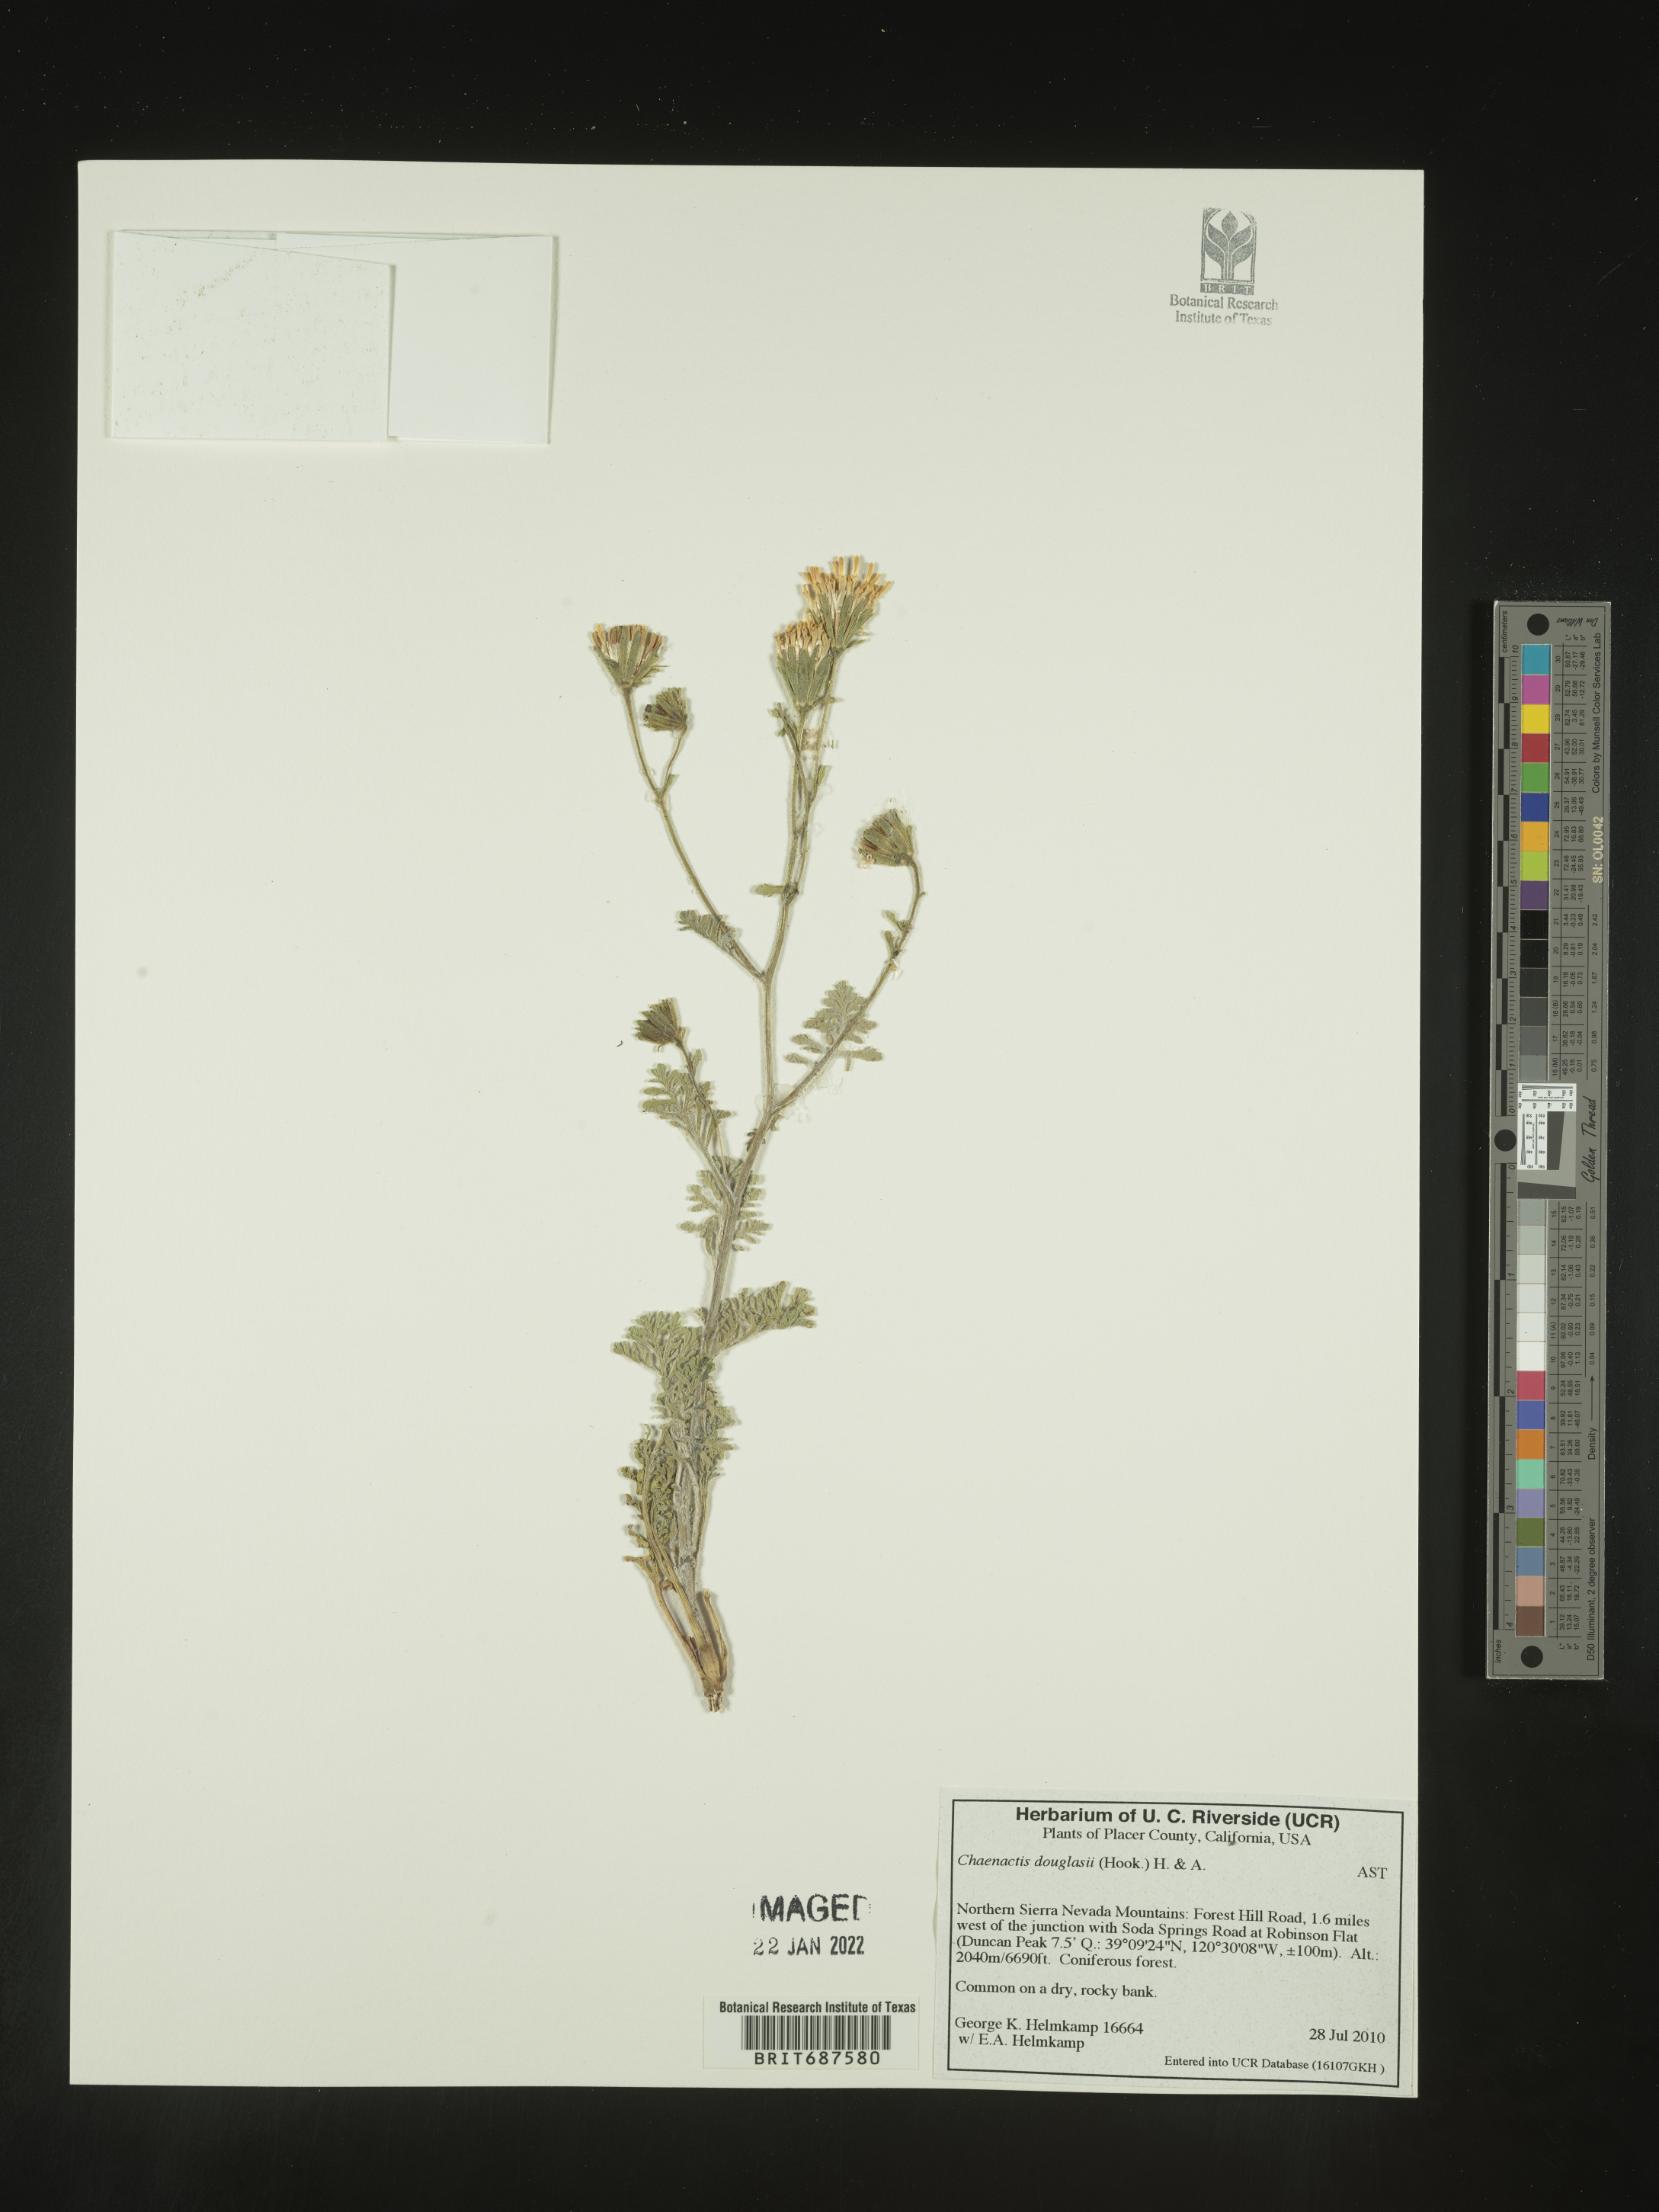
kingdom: Plantae
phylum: Tracheophyta
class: Magnoliopsida
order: Asterales
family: Asteraceae
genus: Chaenactis
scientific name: Chaenactis douglasii
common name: Hoary pincushion
